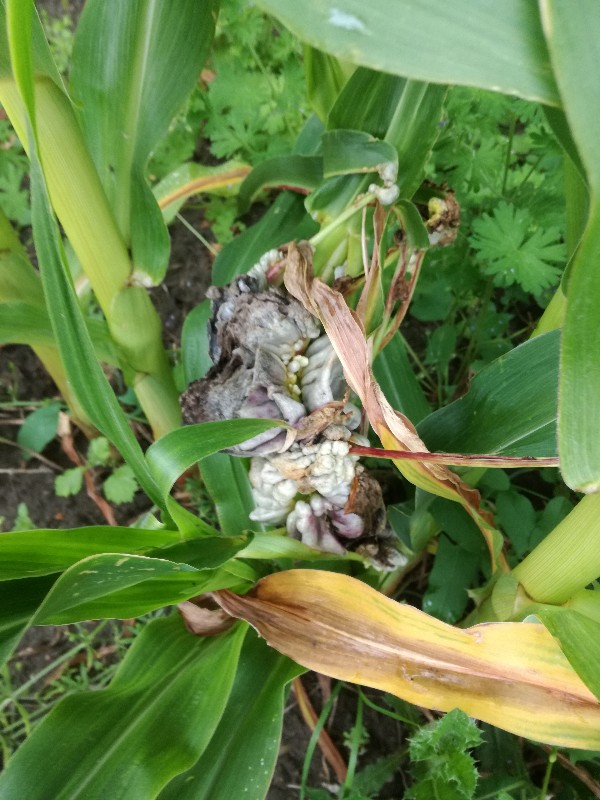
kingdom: Fungi
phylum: Basidiomycota
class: Ustilaginomycetes
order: Ustilaginales
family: Ustilaginaceae
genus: Mycosarcoma
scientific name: Mycosarcoma maydis
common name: majs-brand
